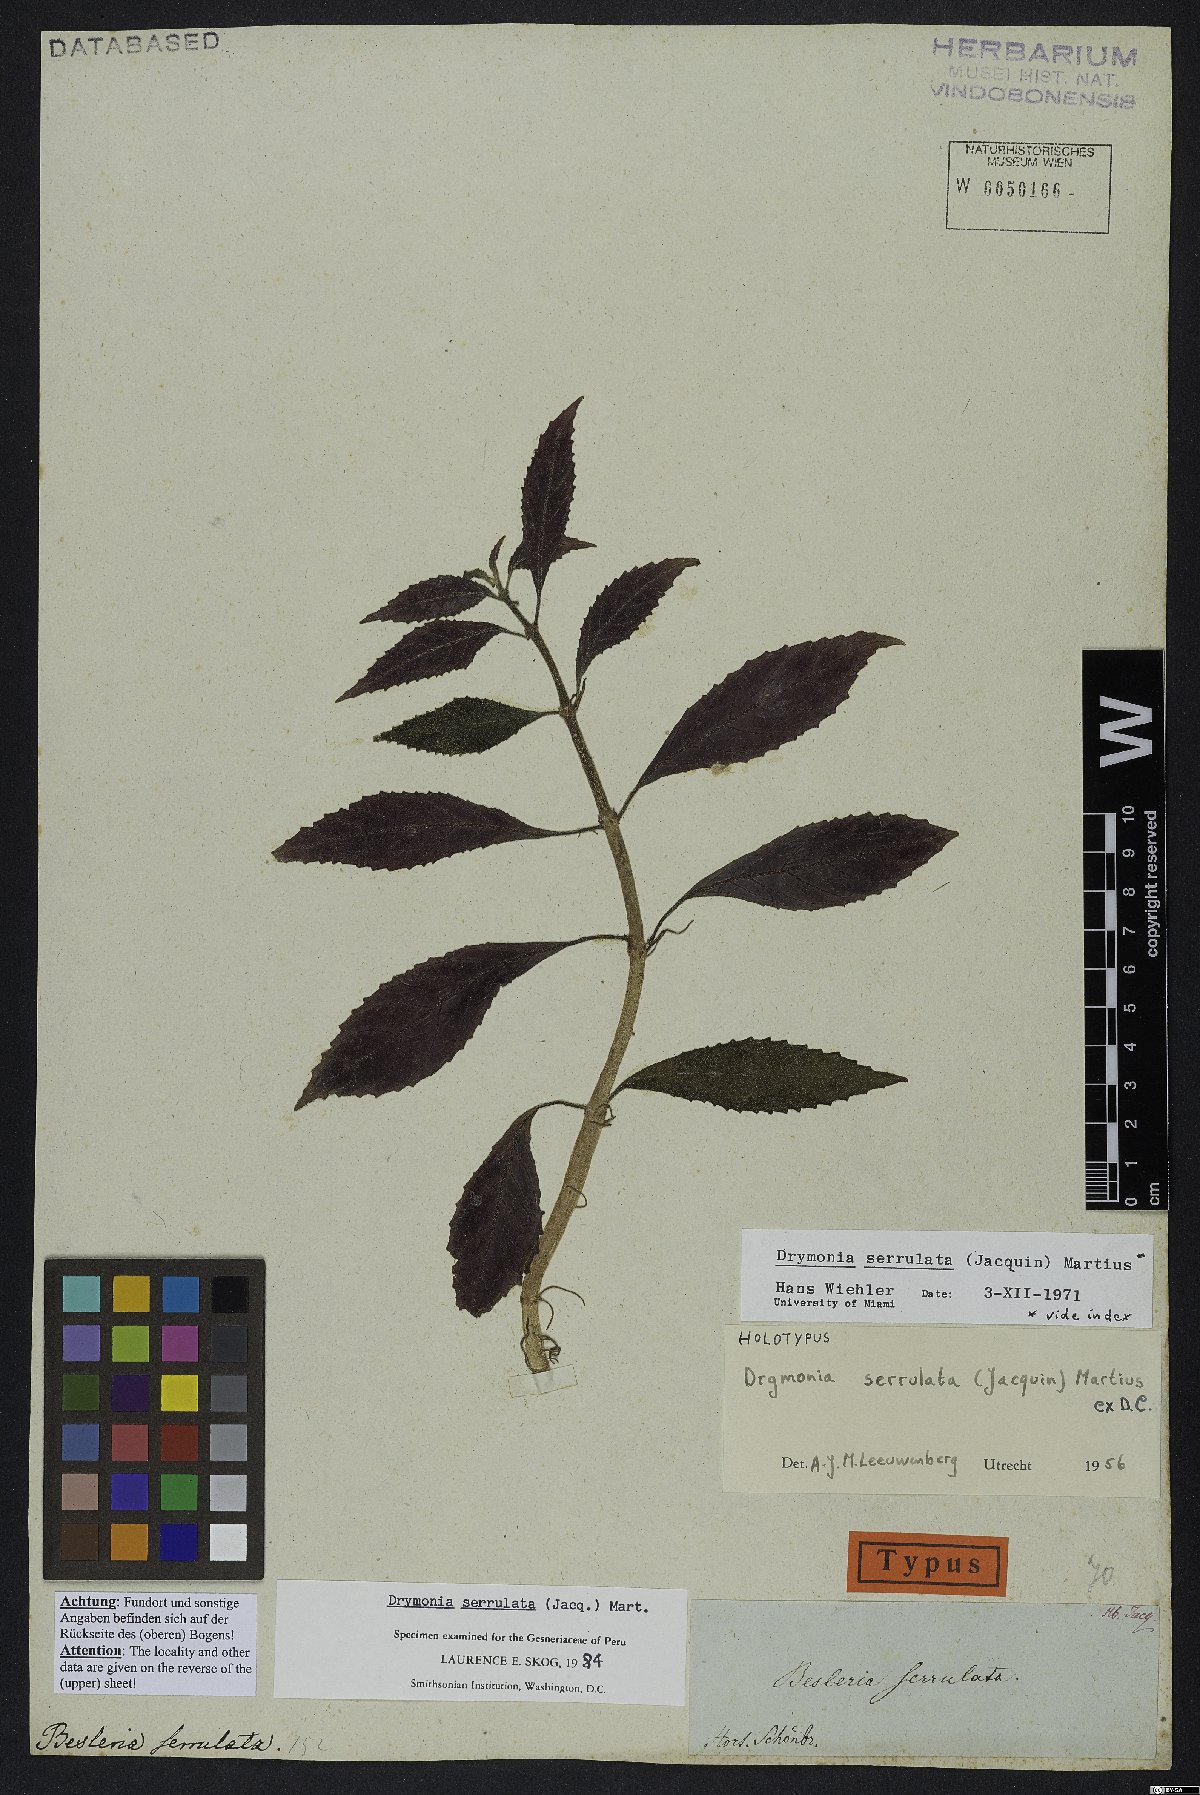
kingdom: Plantae
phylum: Tracheophyta
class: Magnoliopsida
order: Lamiales
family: Gesneriaceae
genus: Drymonia
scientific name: Drymonia serrulata
